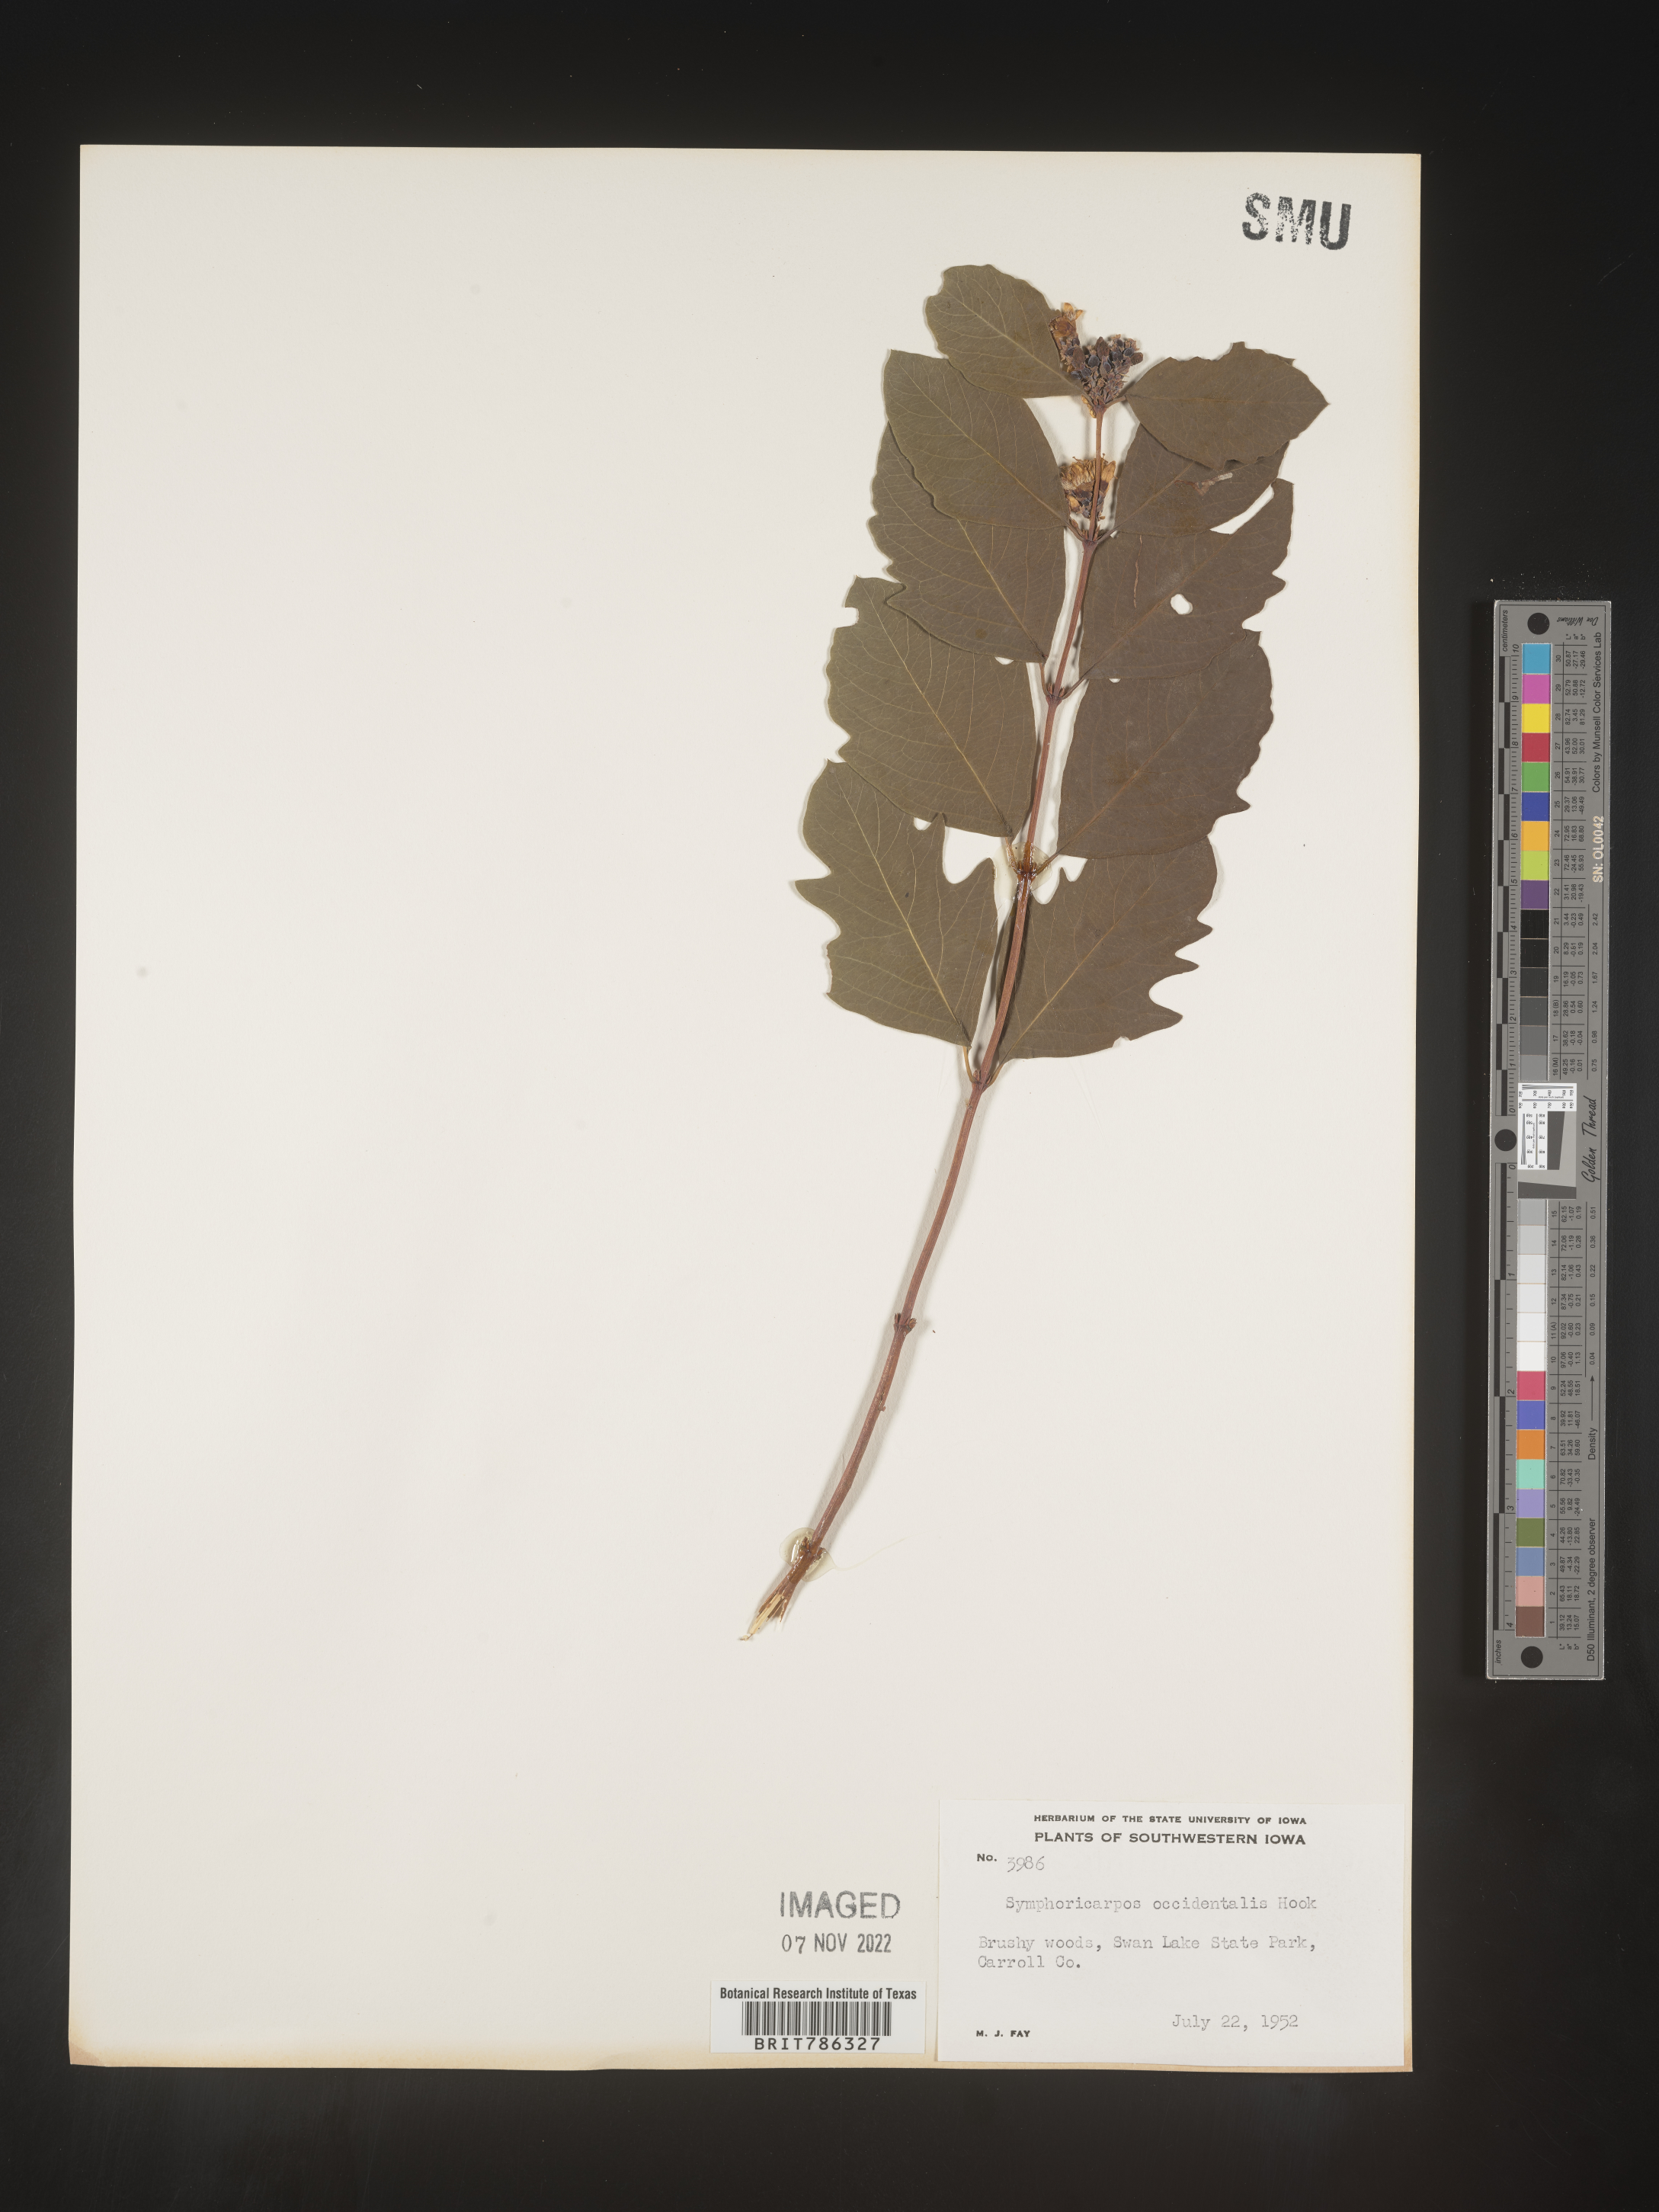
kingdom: Plantae
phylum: Tracheophyta
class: Magnoliopsida
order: Dipsacales
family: Caprifoliaceae
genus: Symphoricarpos
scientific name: Symphoricarpos occidentalis
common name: Wolfberry
